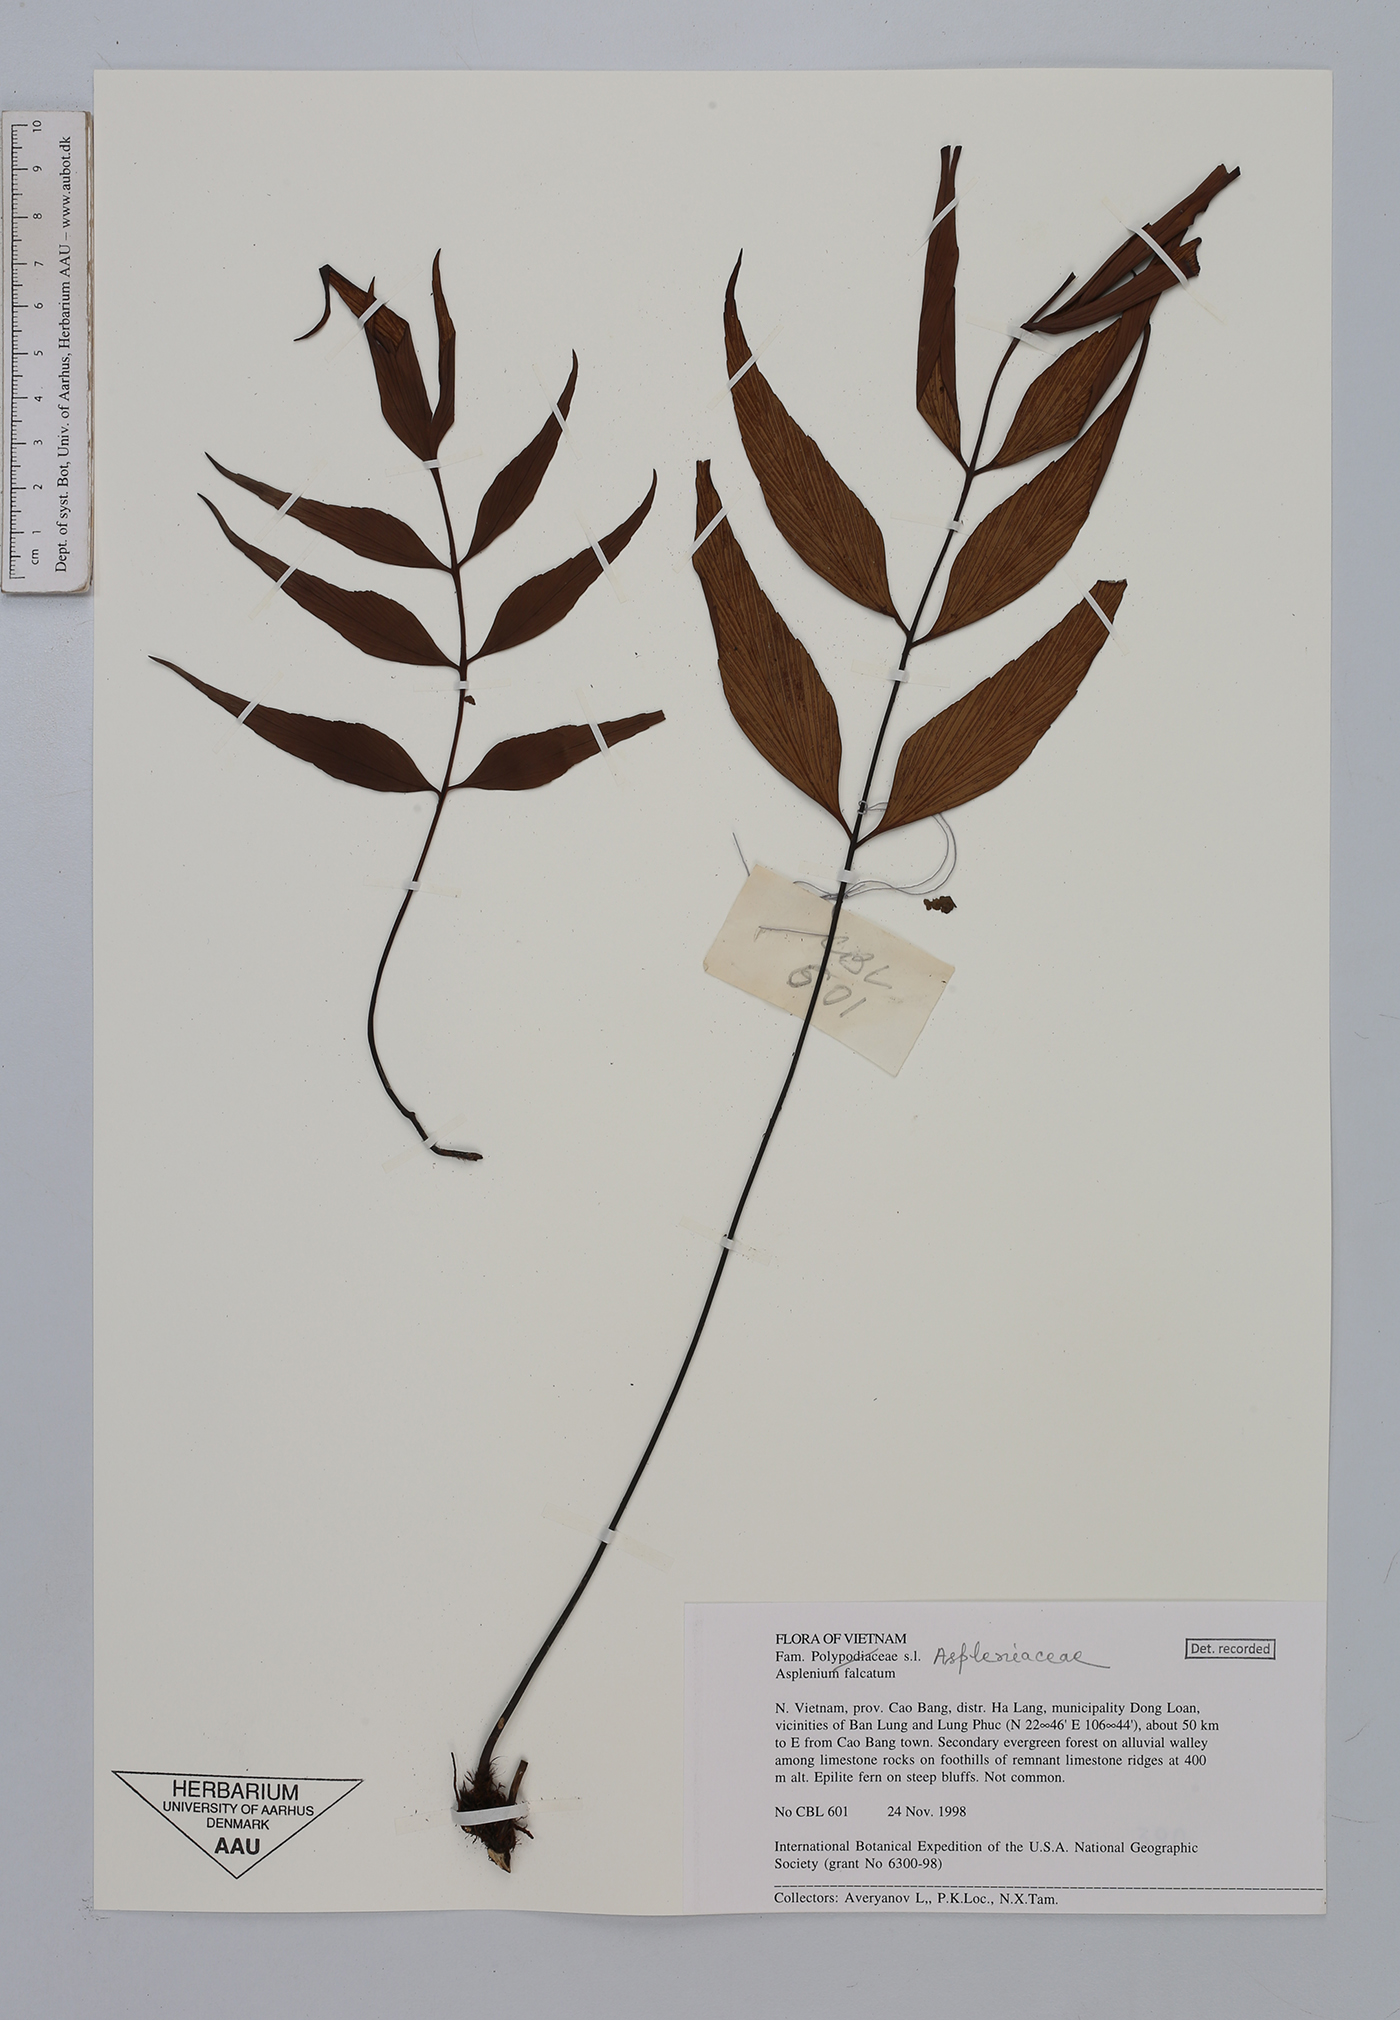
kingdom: Plantae
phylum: Tracheophyta
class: Magnoliopsida
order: Asterales
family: Asteraceae
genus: Blumea
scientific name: Blumea megacephala
